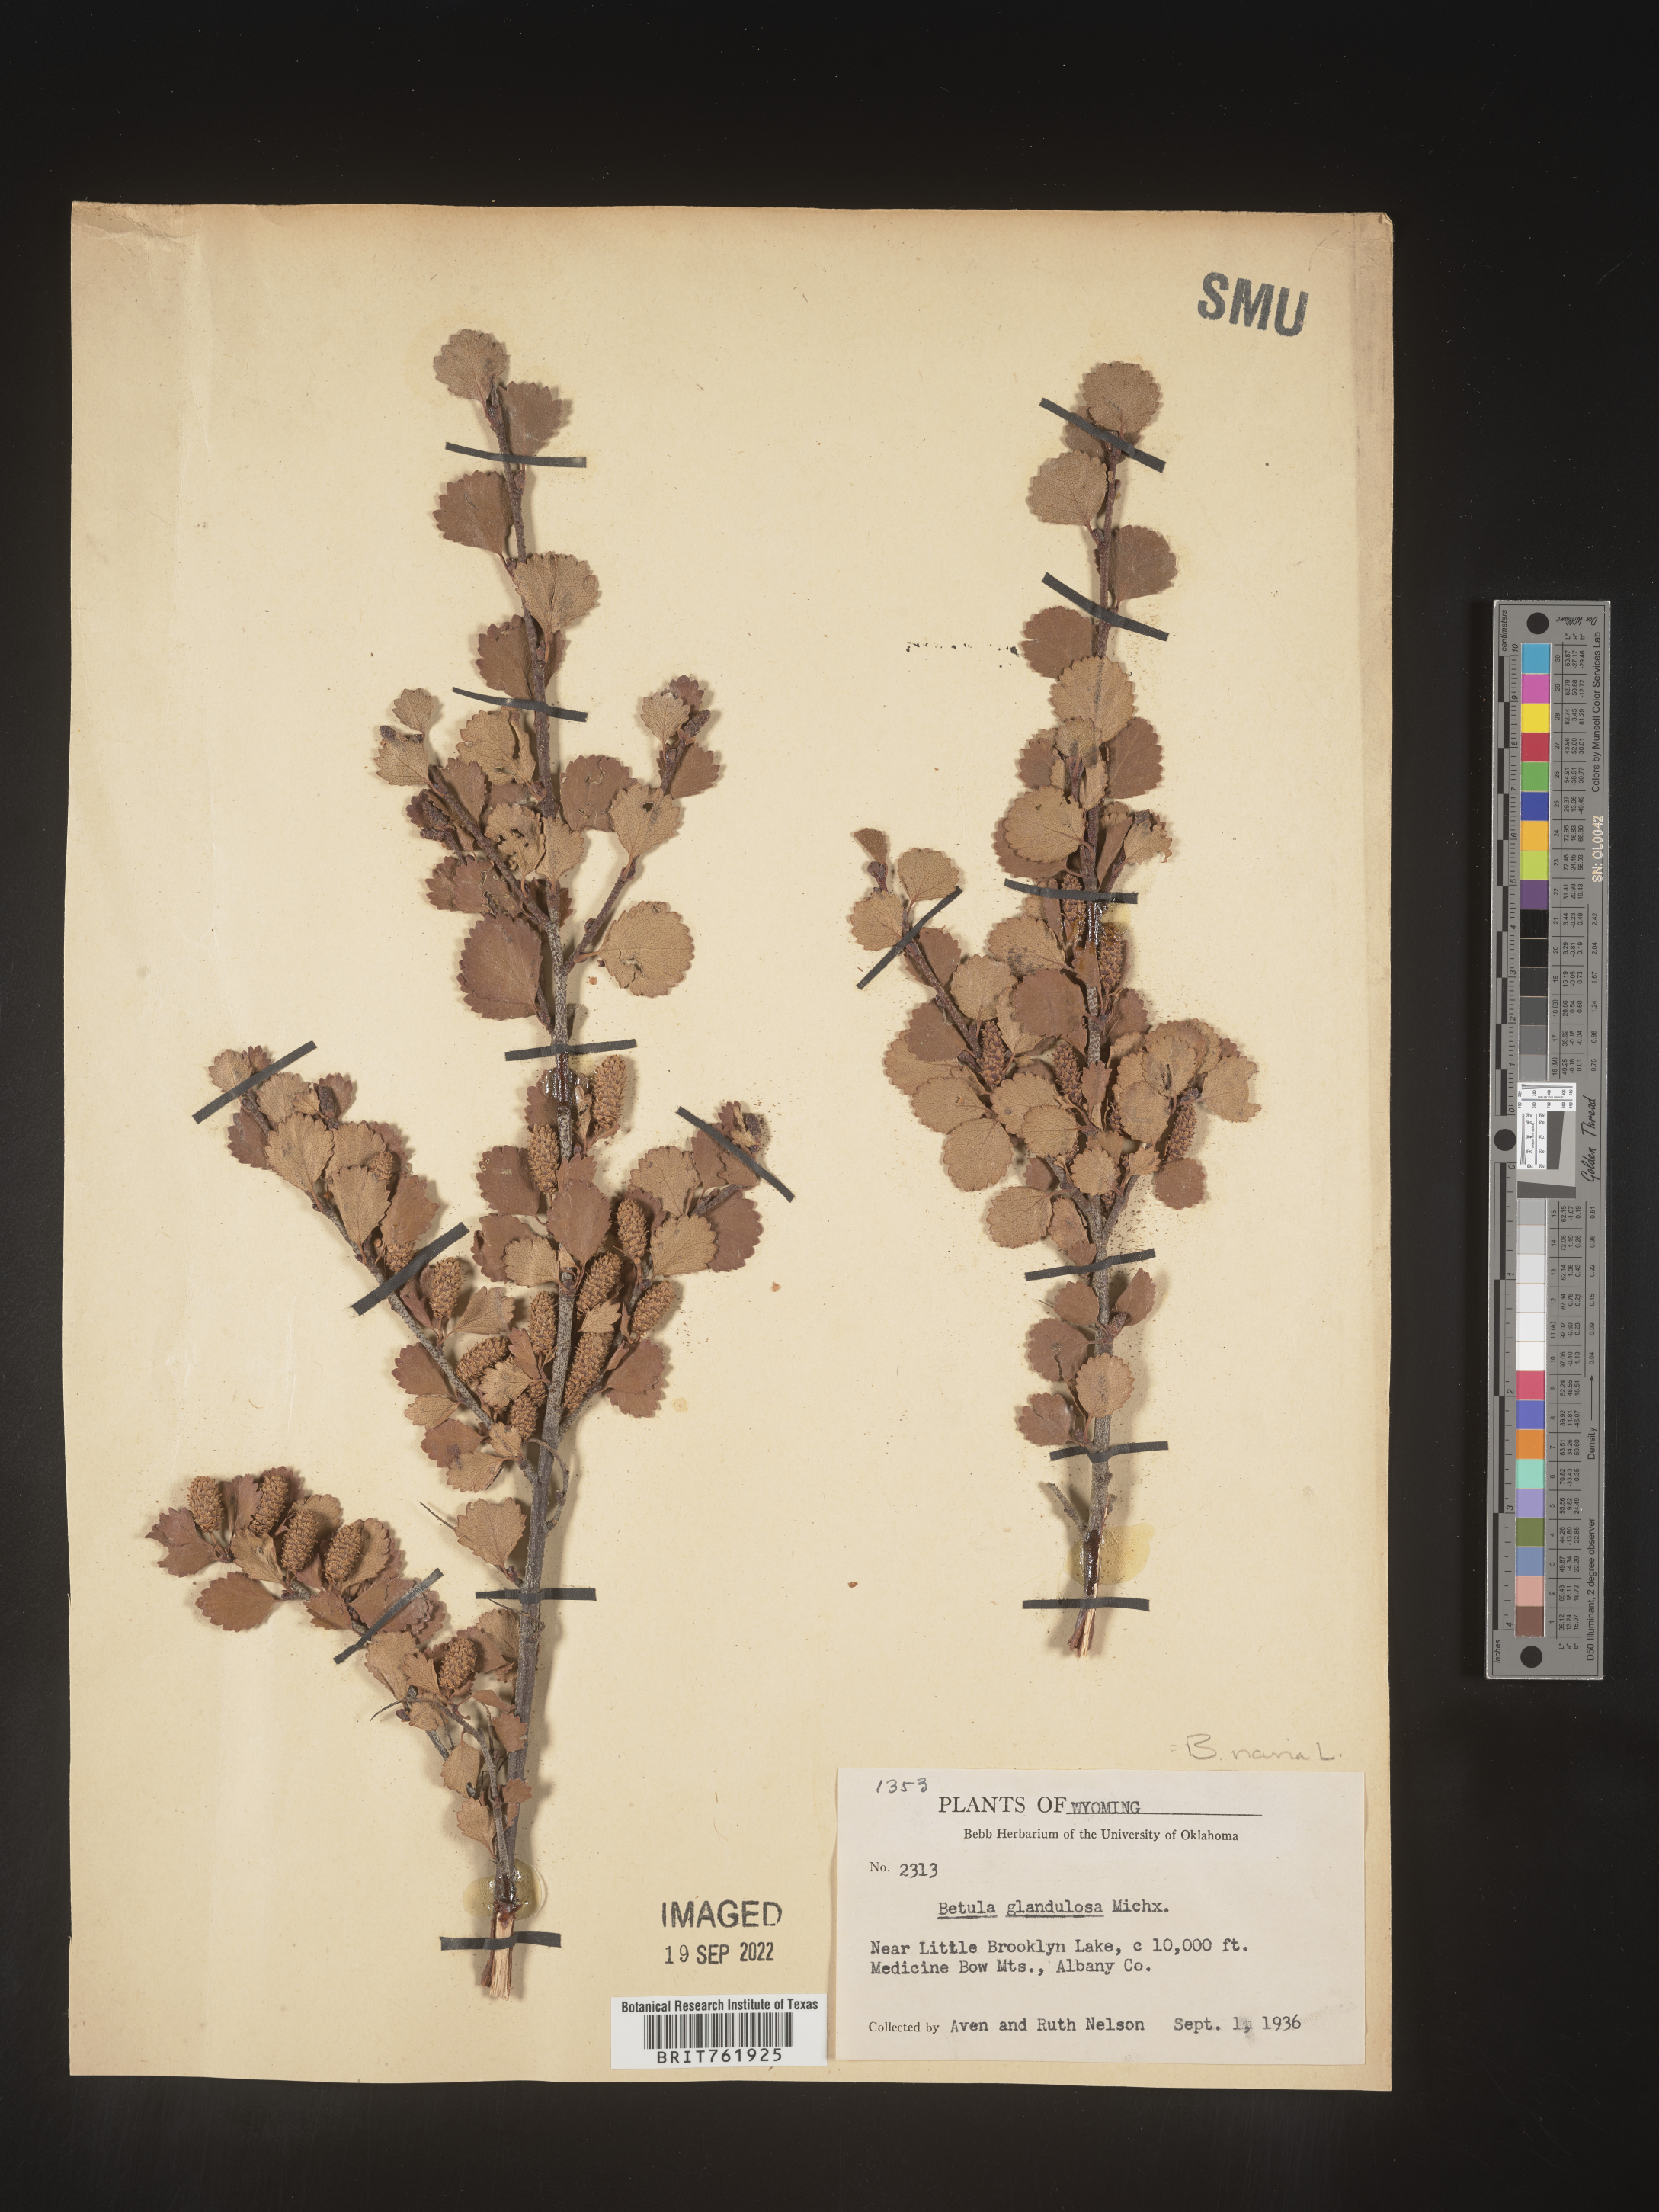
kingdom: Plantae
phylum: Tracheophyta
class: Magnoliopsida
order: Fagales
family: Betulaceae
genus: Betula
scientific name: Betula nana
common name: Arctic dwarf birch
